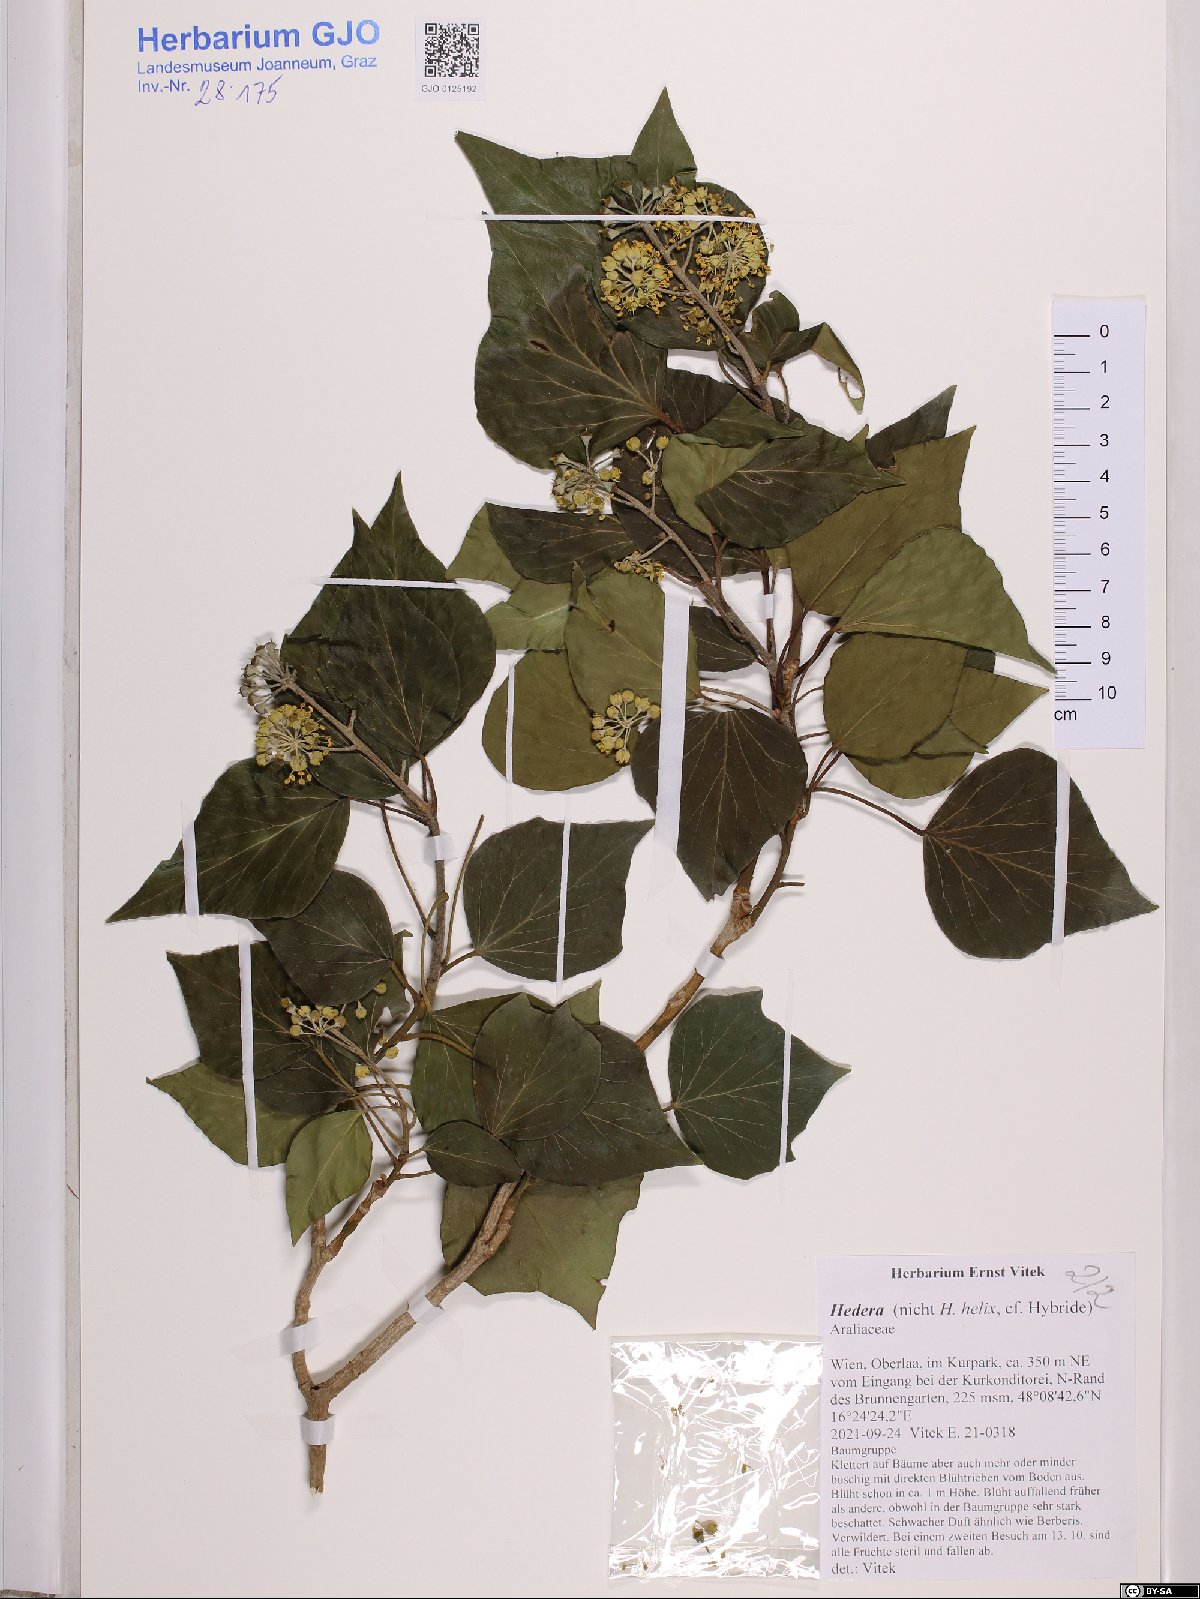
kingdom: Plantae
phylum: Tracheophyta
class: Magnoliopsida
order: Apiales
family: Araliaceae
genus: Hedera
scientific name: Hedera
